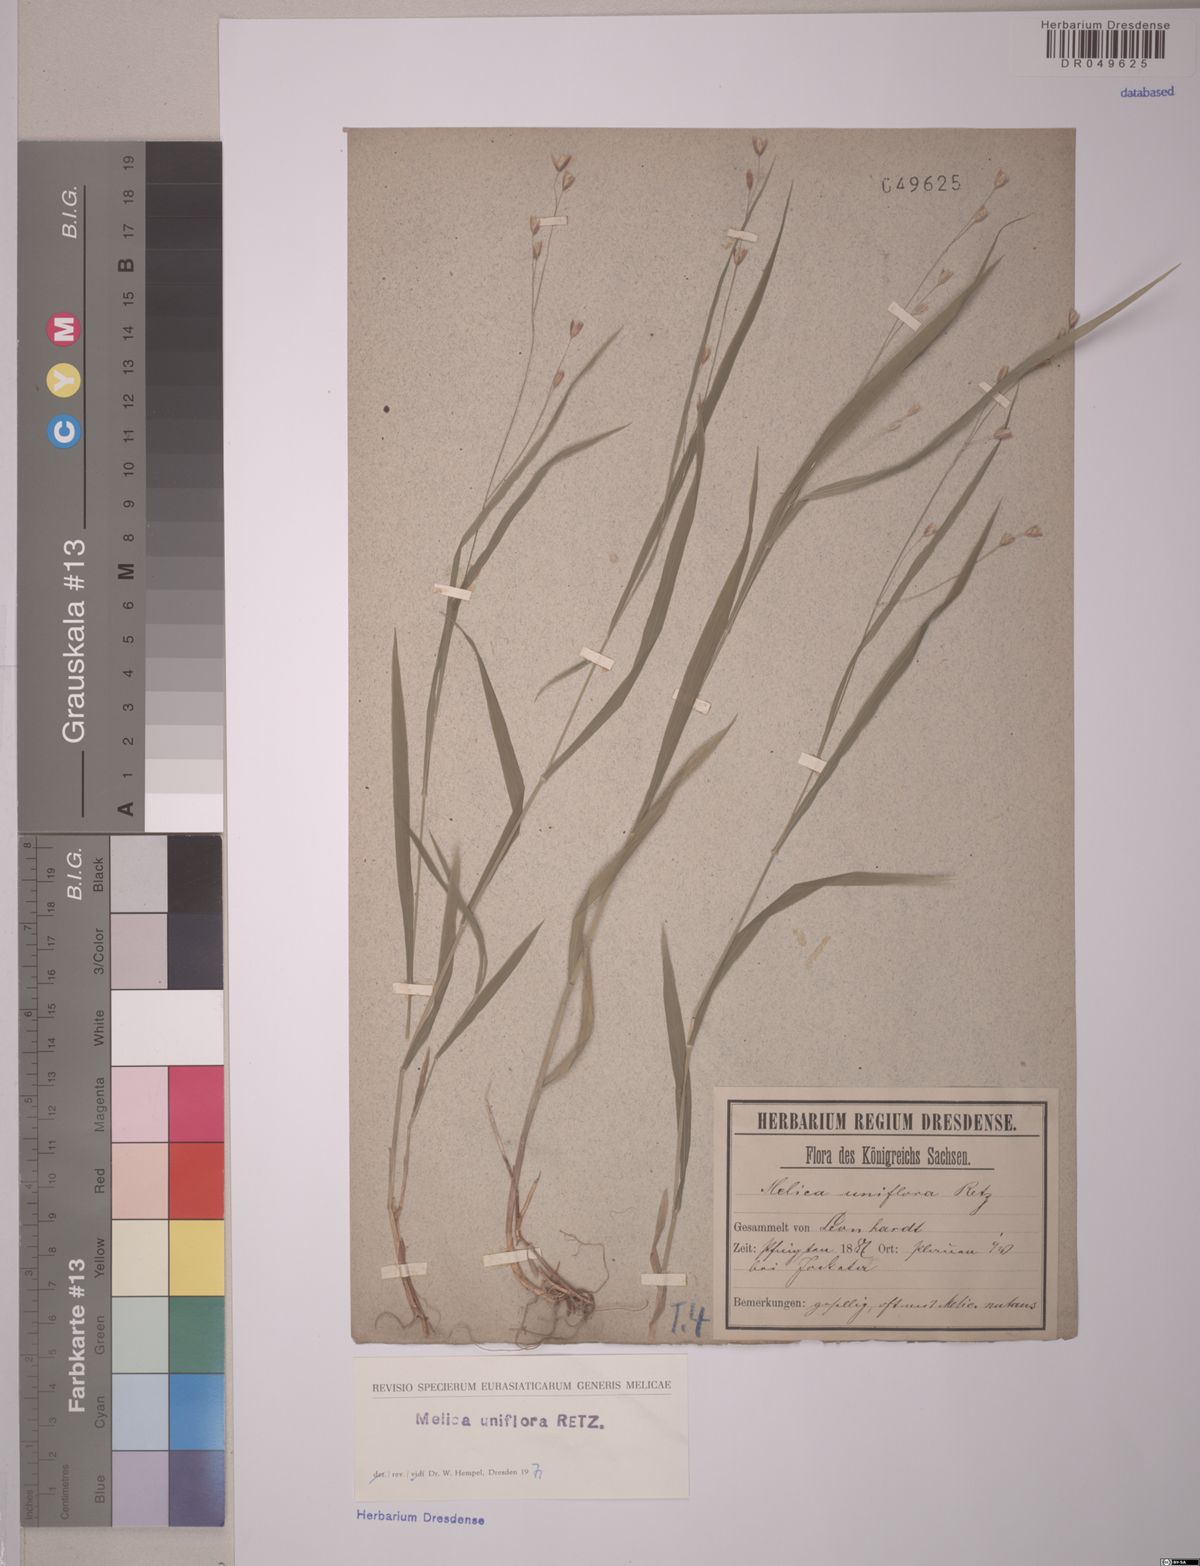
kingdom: Plantae
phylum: Tracheophyta
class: Liliopsida
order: Poales
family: Poaceae
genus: Melica
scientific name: Melica uniflora
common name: Wood melick
